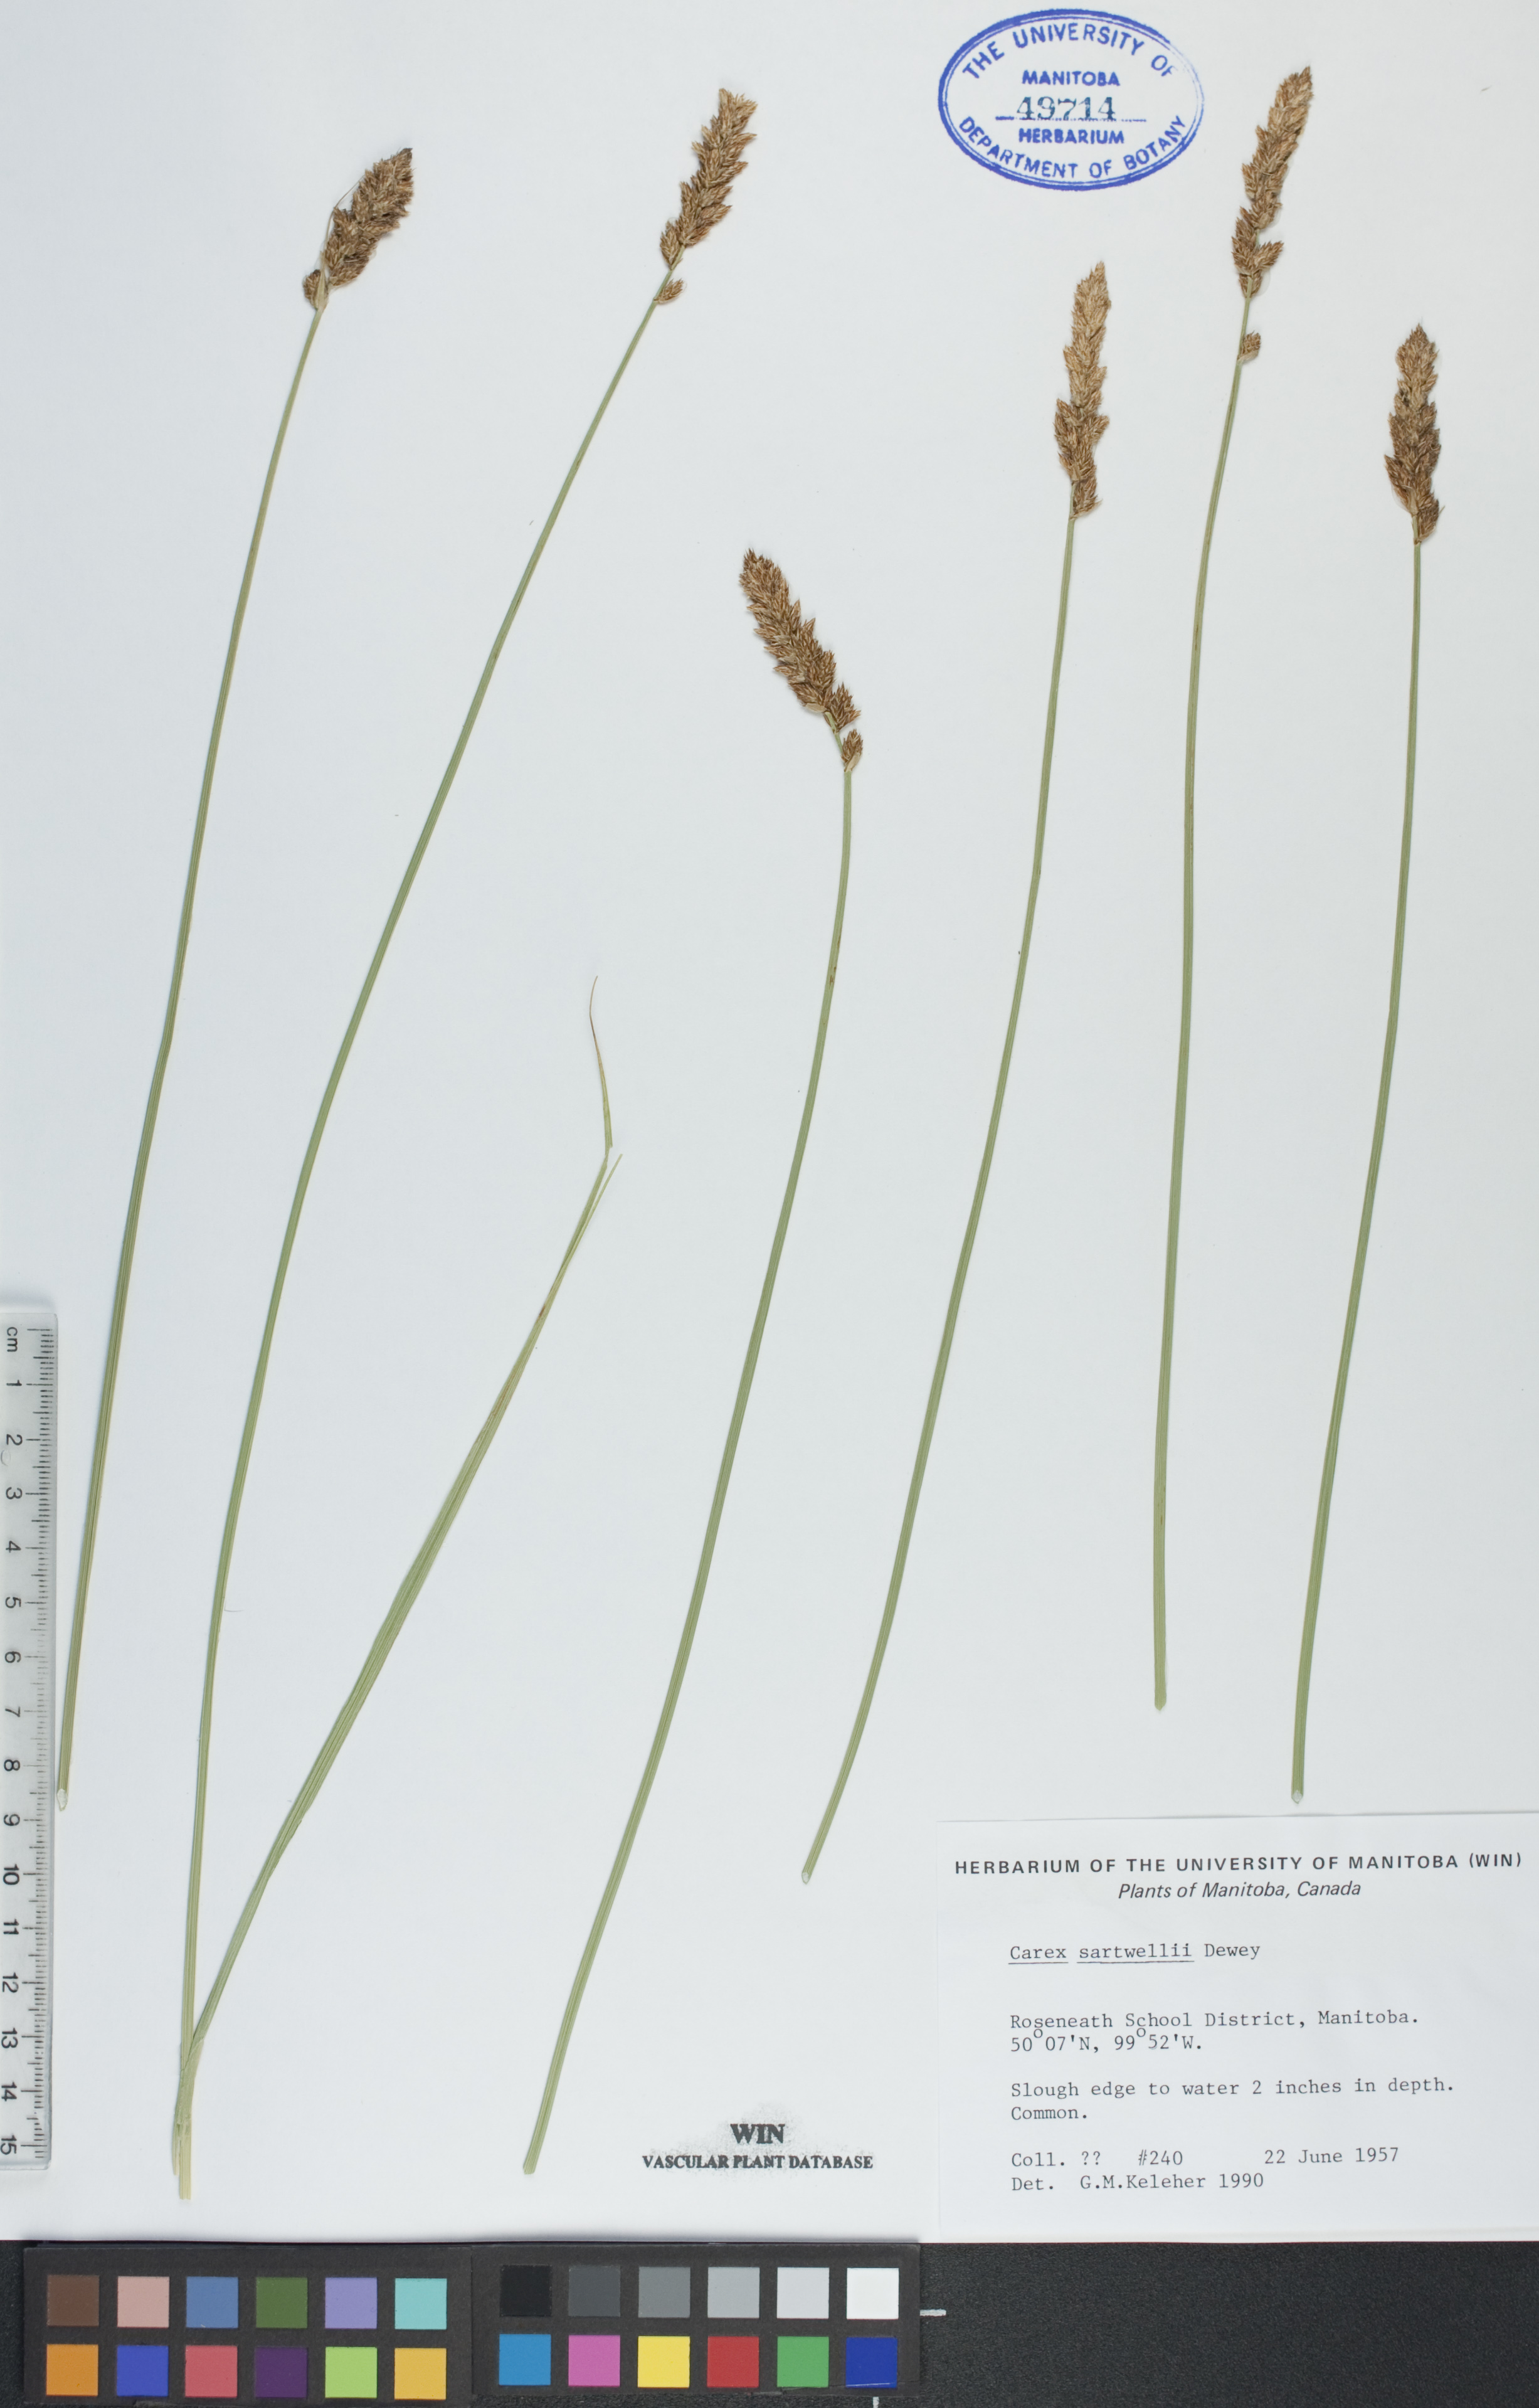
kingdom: Plantae
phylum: Tracheophyta
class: Liliopsida
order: Poales
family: Cyperaceae
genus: Carex
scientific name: Carex sartwellii
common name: Sartwell's sedge
